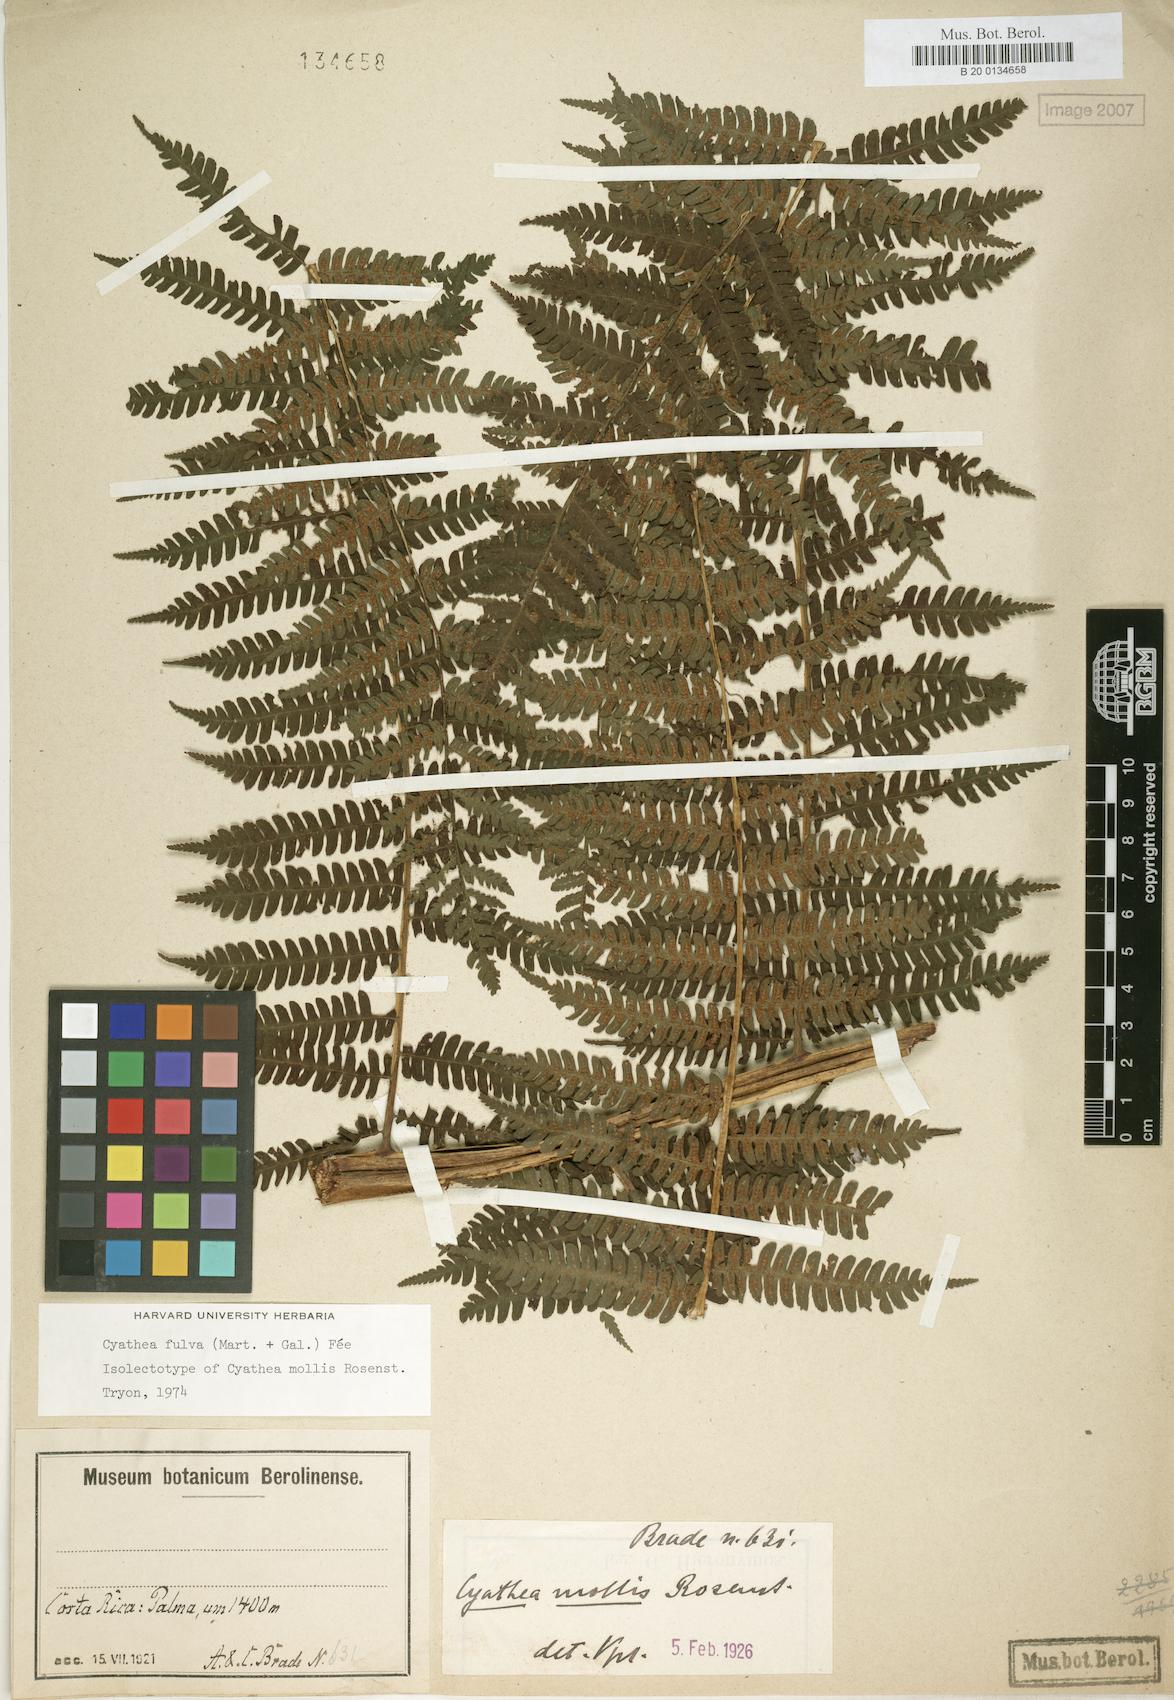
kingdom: Plantae
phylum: Tracheophyta
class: Polypodiopsida
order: Cyatheales
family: Cyatheaceae
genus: Cyathea
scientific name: Cyathea fulva
